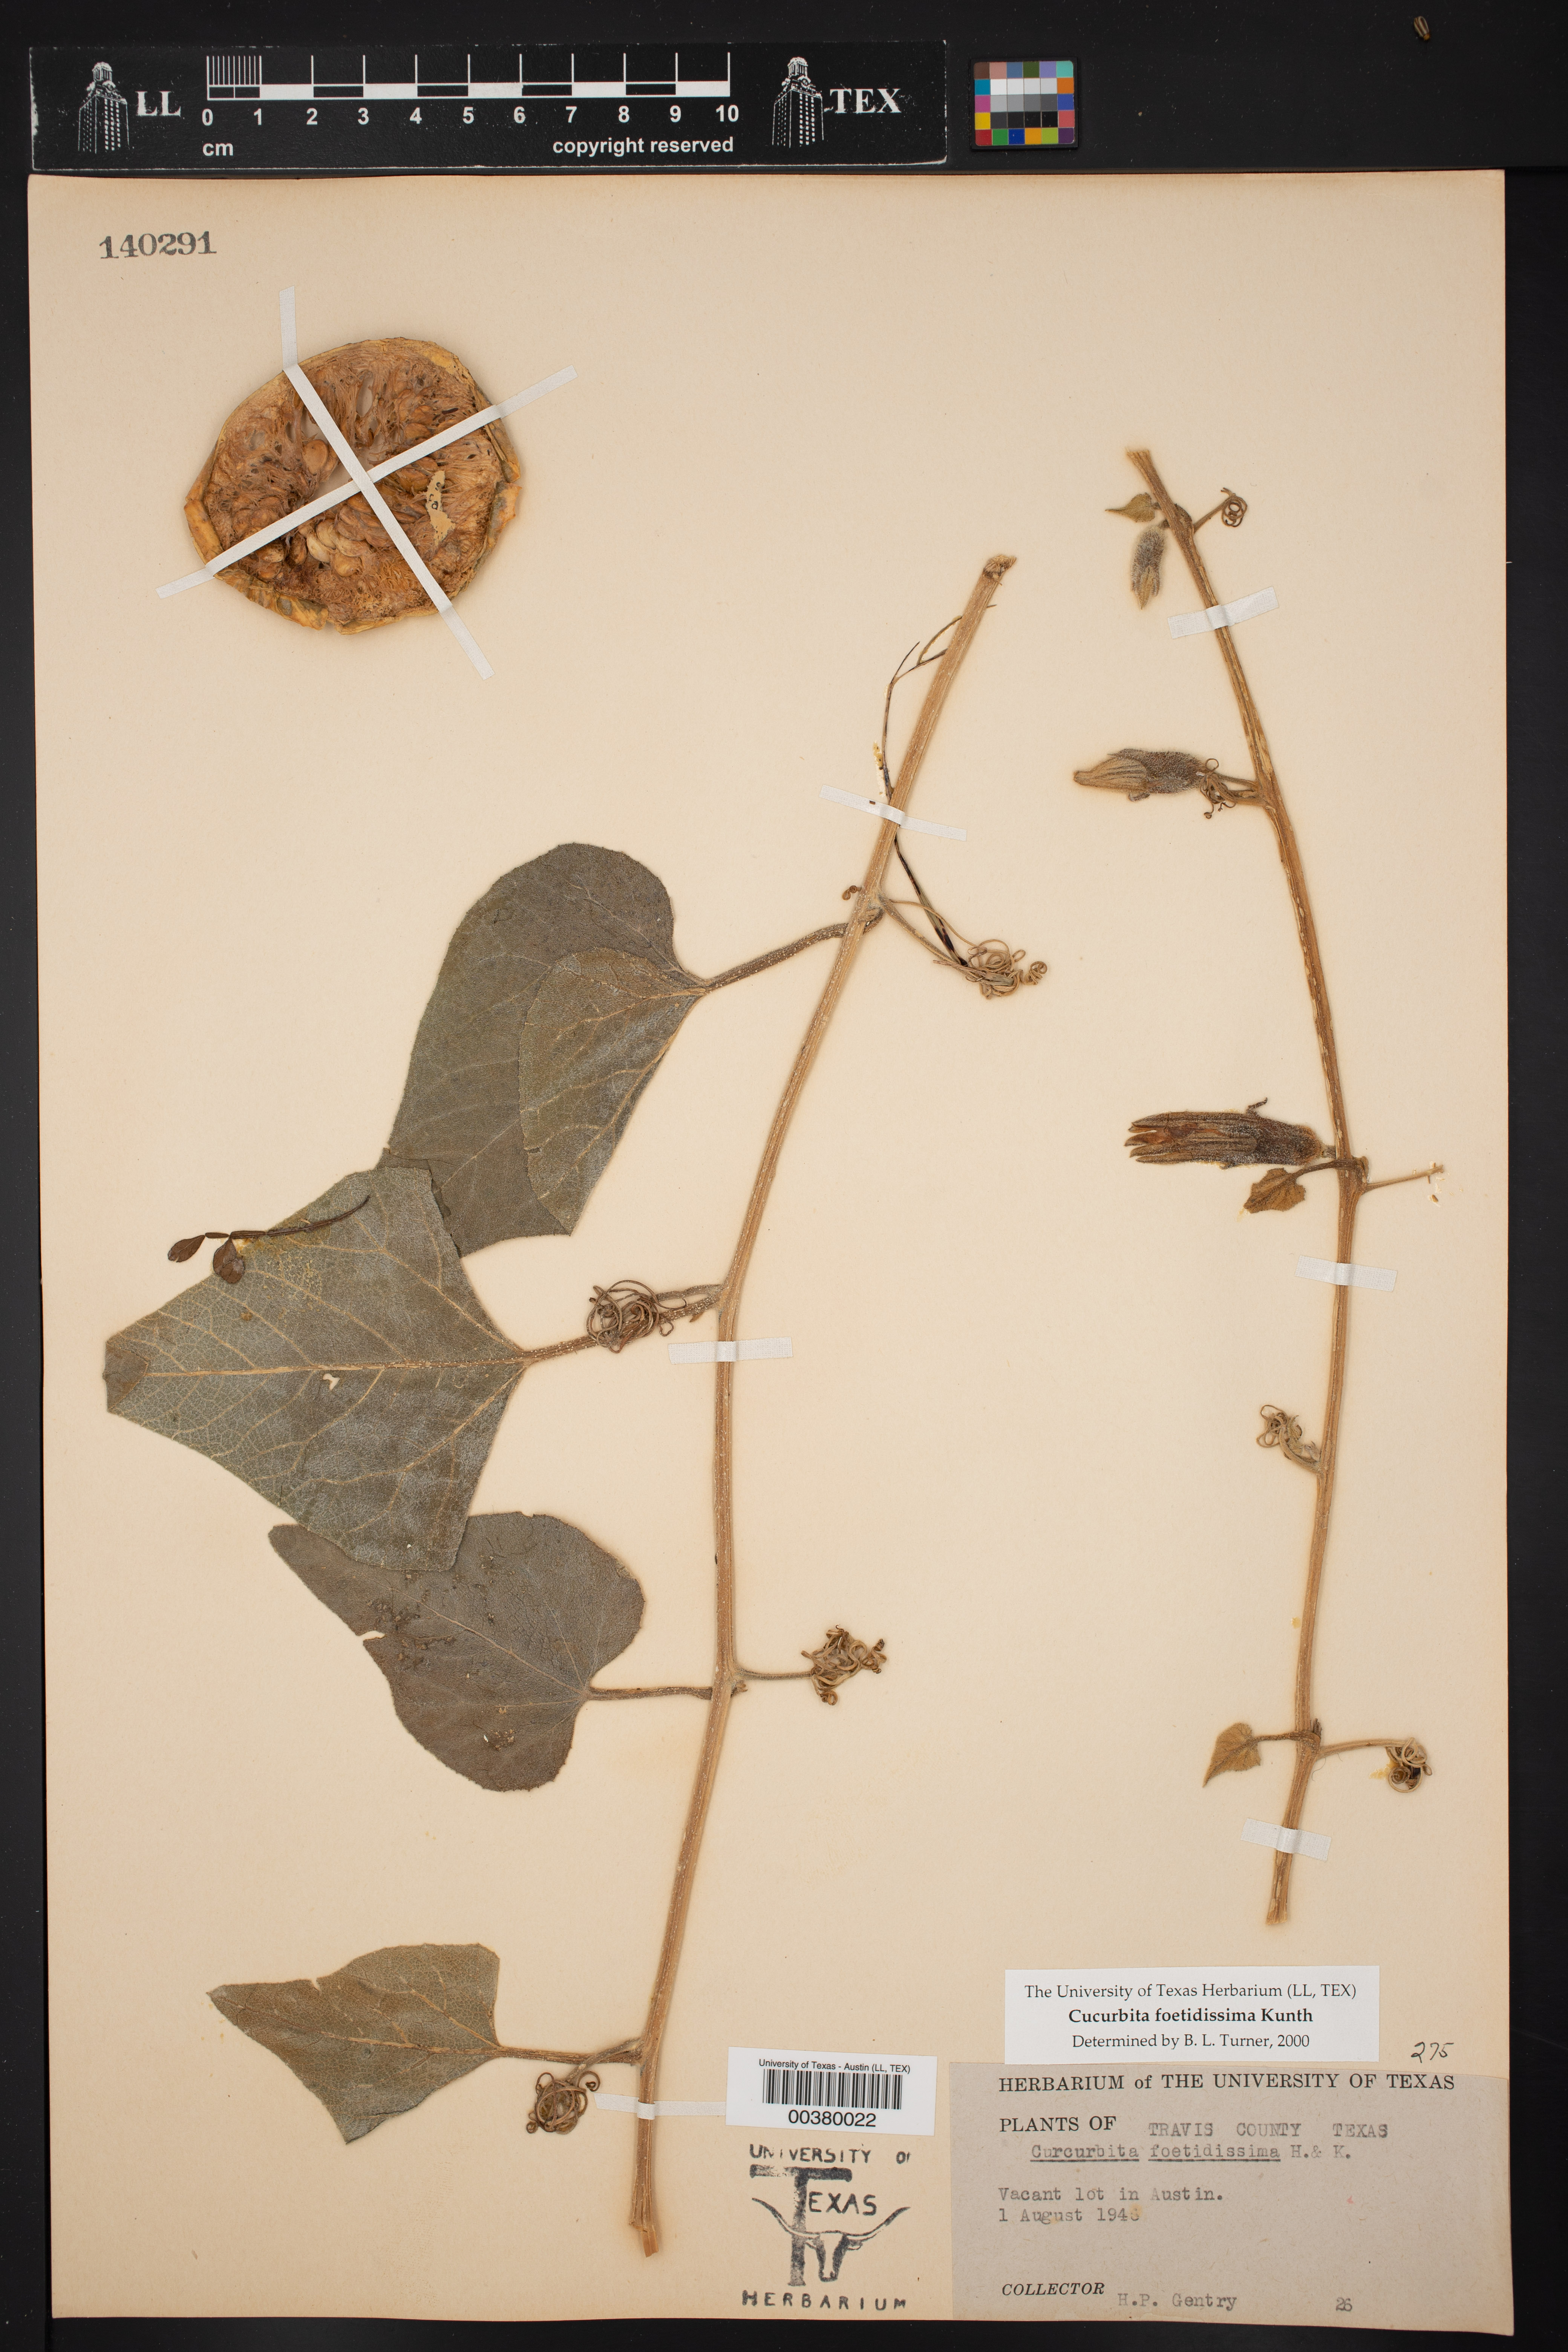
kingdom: Plantae
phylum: Tracheophyta
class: Magnoliopsida
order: Cucurbitales
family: Cucurbitaceae
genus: Cucurbita
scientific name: Cucurbita foetidissima
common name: Buffalo gourd
